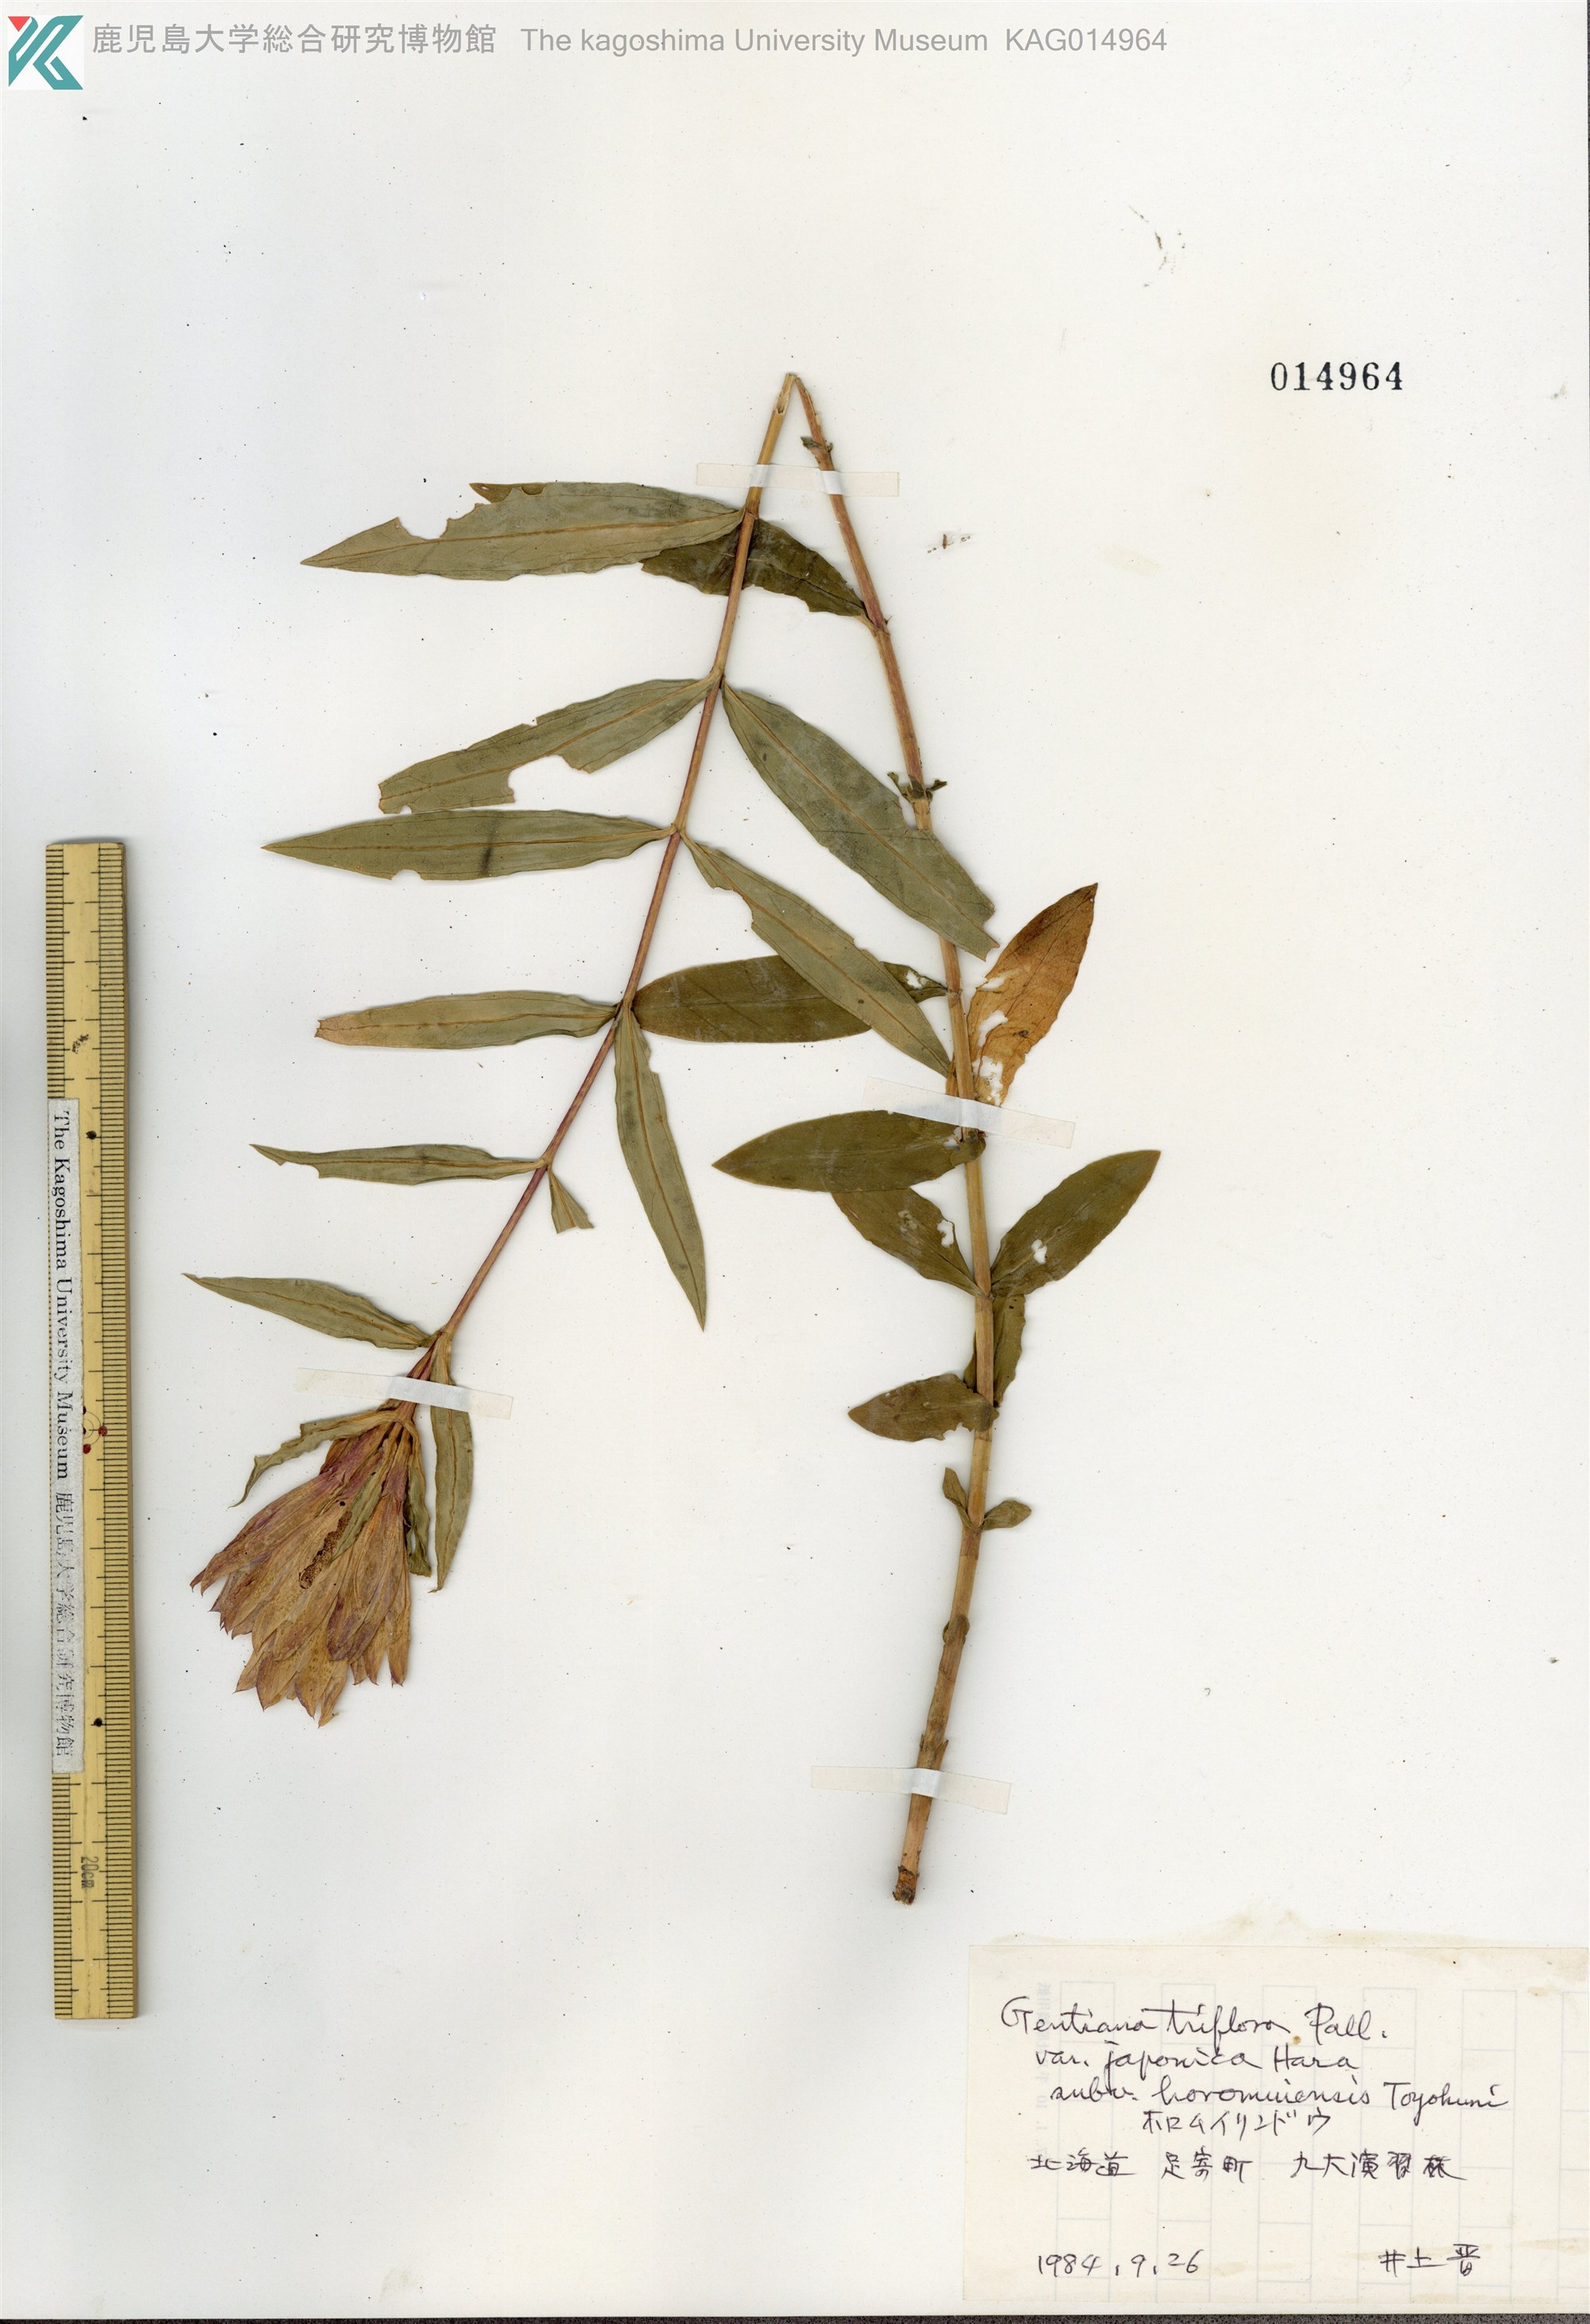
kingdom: Plantae
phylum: Tracheophyta
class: Magnoliopsida
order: Gentianales
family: Gentianaceae
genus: Gentiana
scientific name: Gentiana triflora
